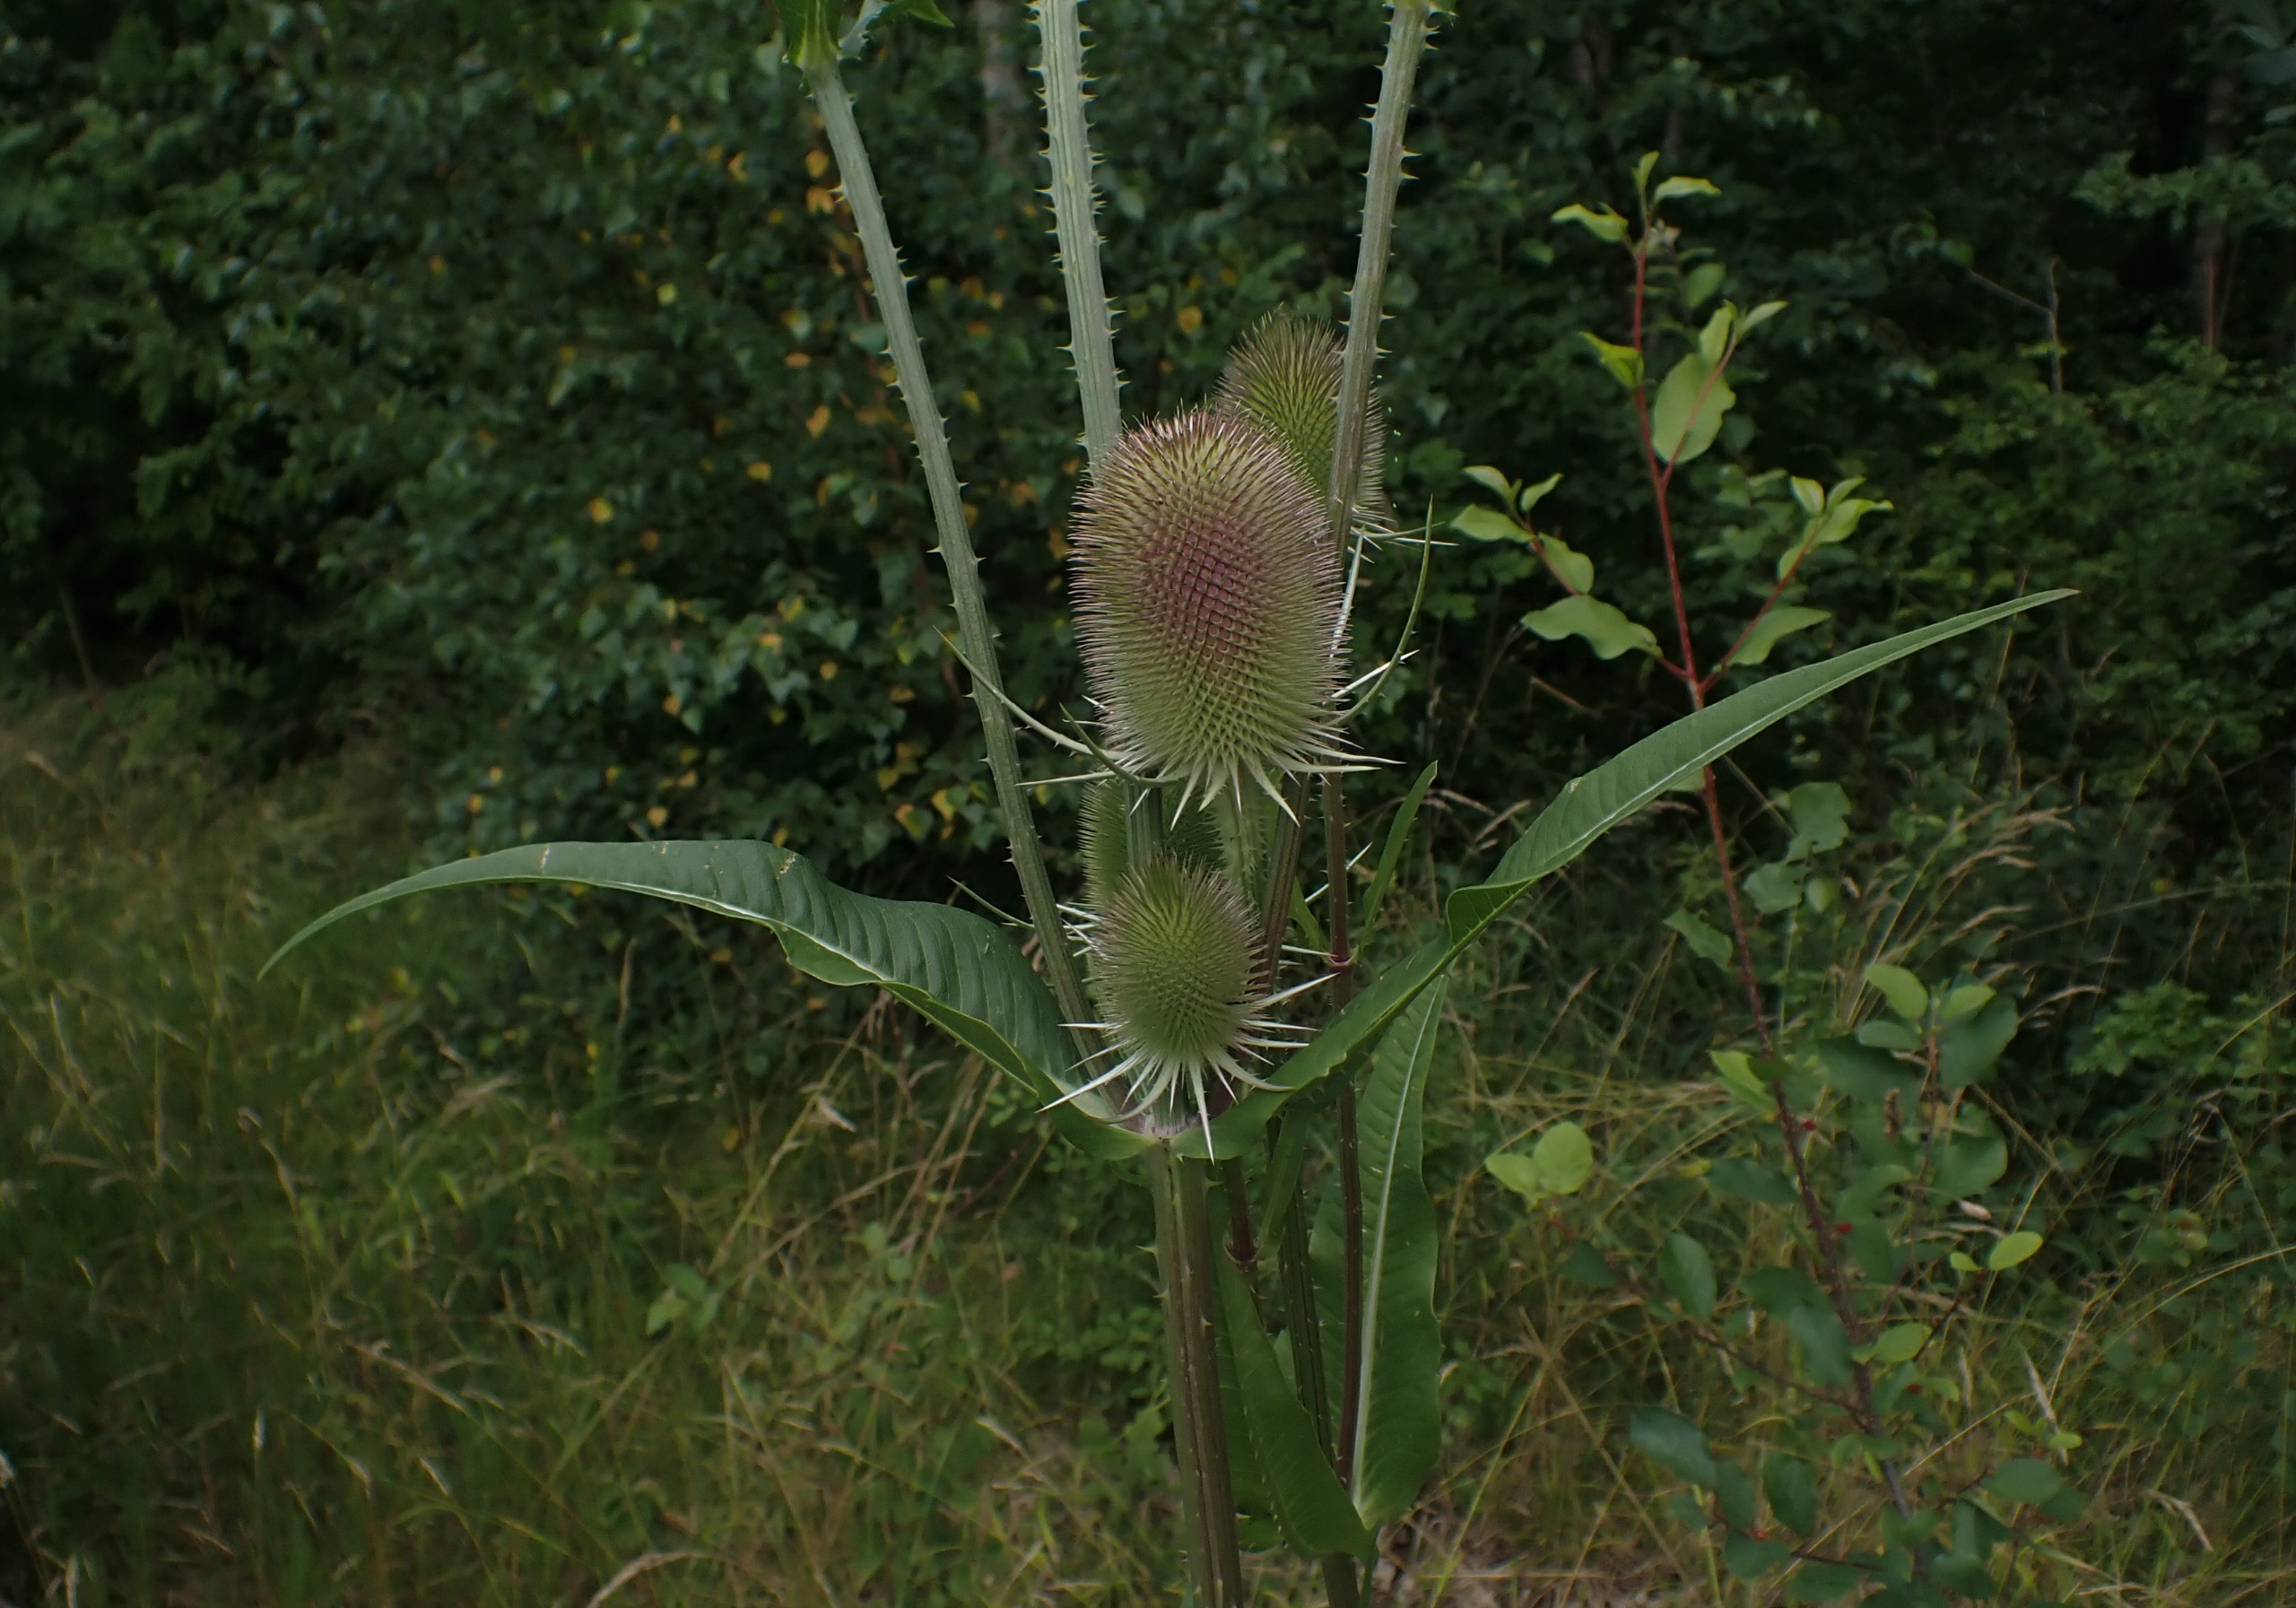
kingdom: Plantae
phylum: Tracheophyta
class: Magnoliopsida
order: Dipsacales
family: Caprifoliaceae
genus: Dipsacus
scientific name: Dipsacus fullonum
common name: Gærde-kartebolle
